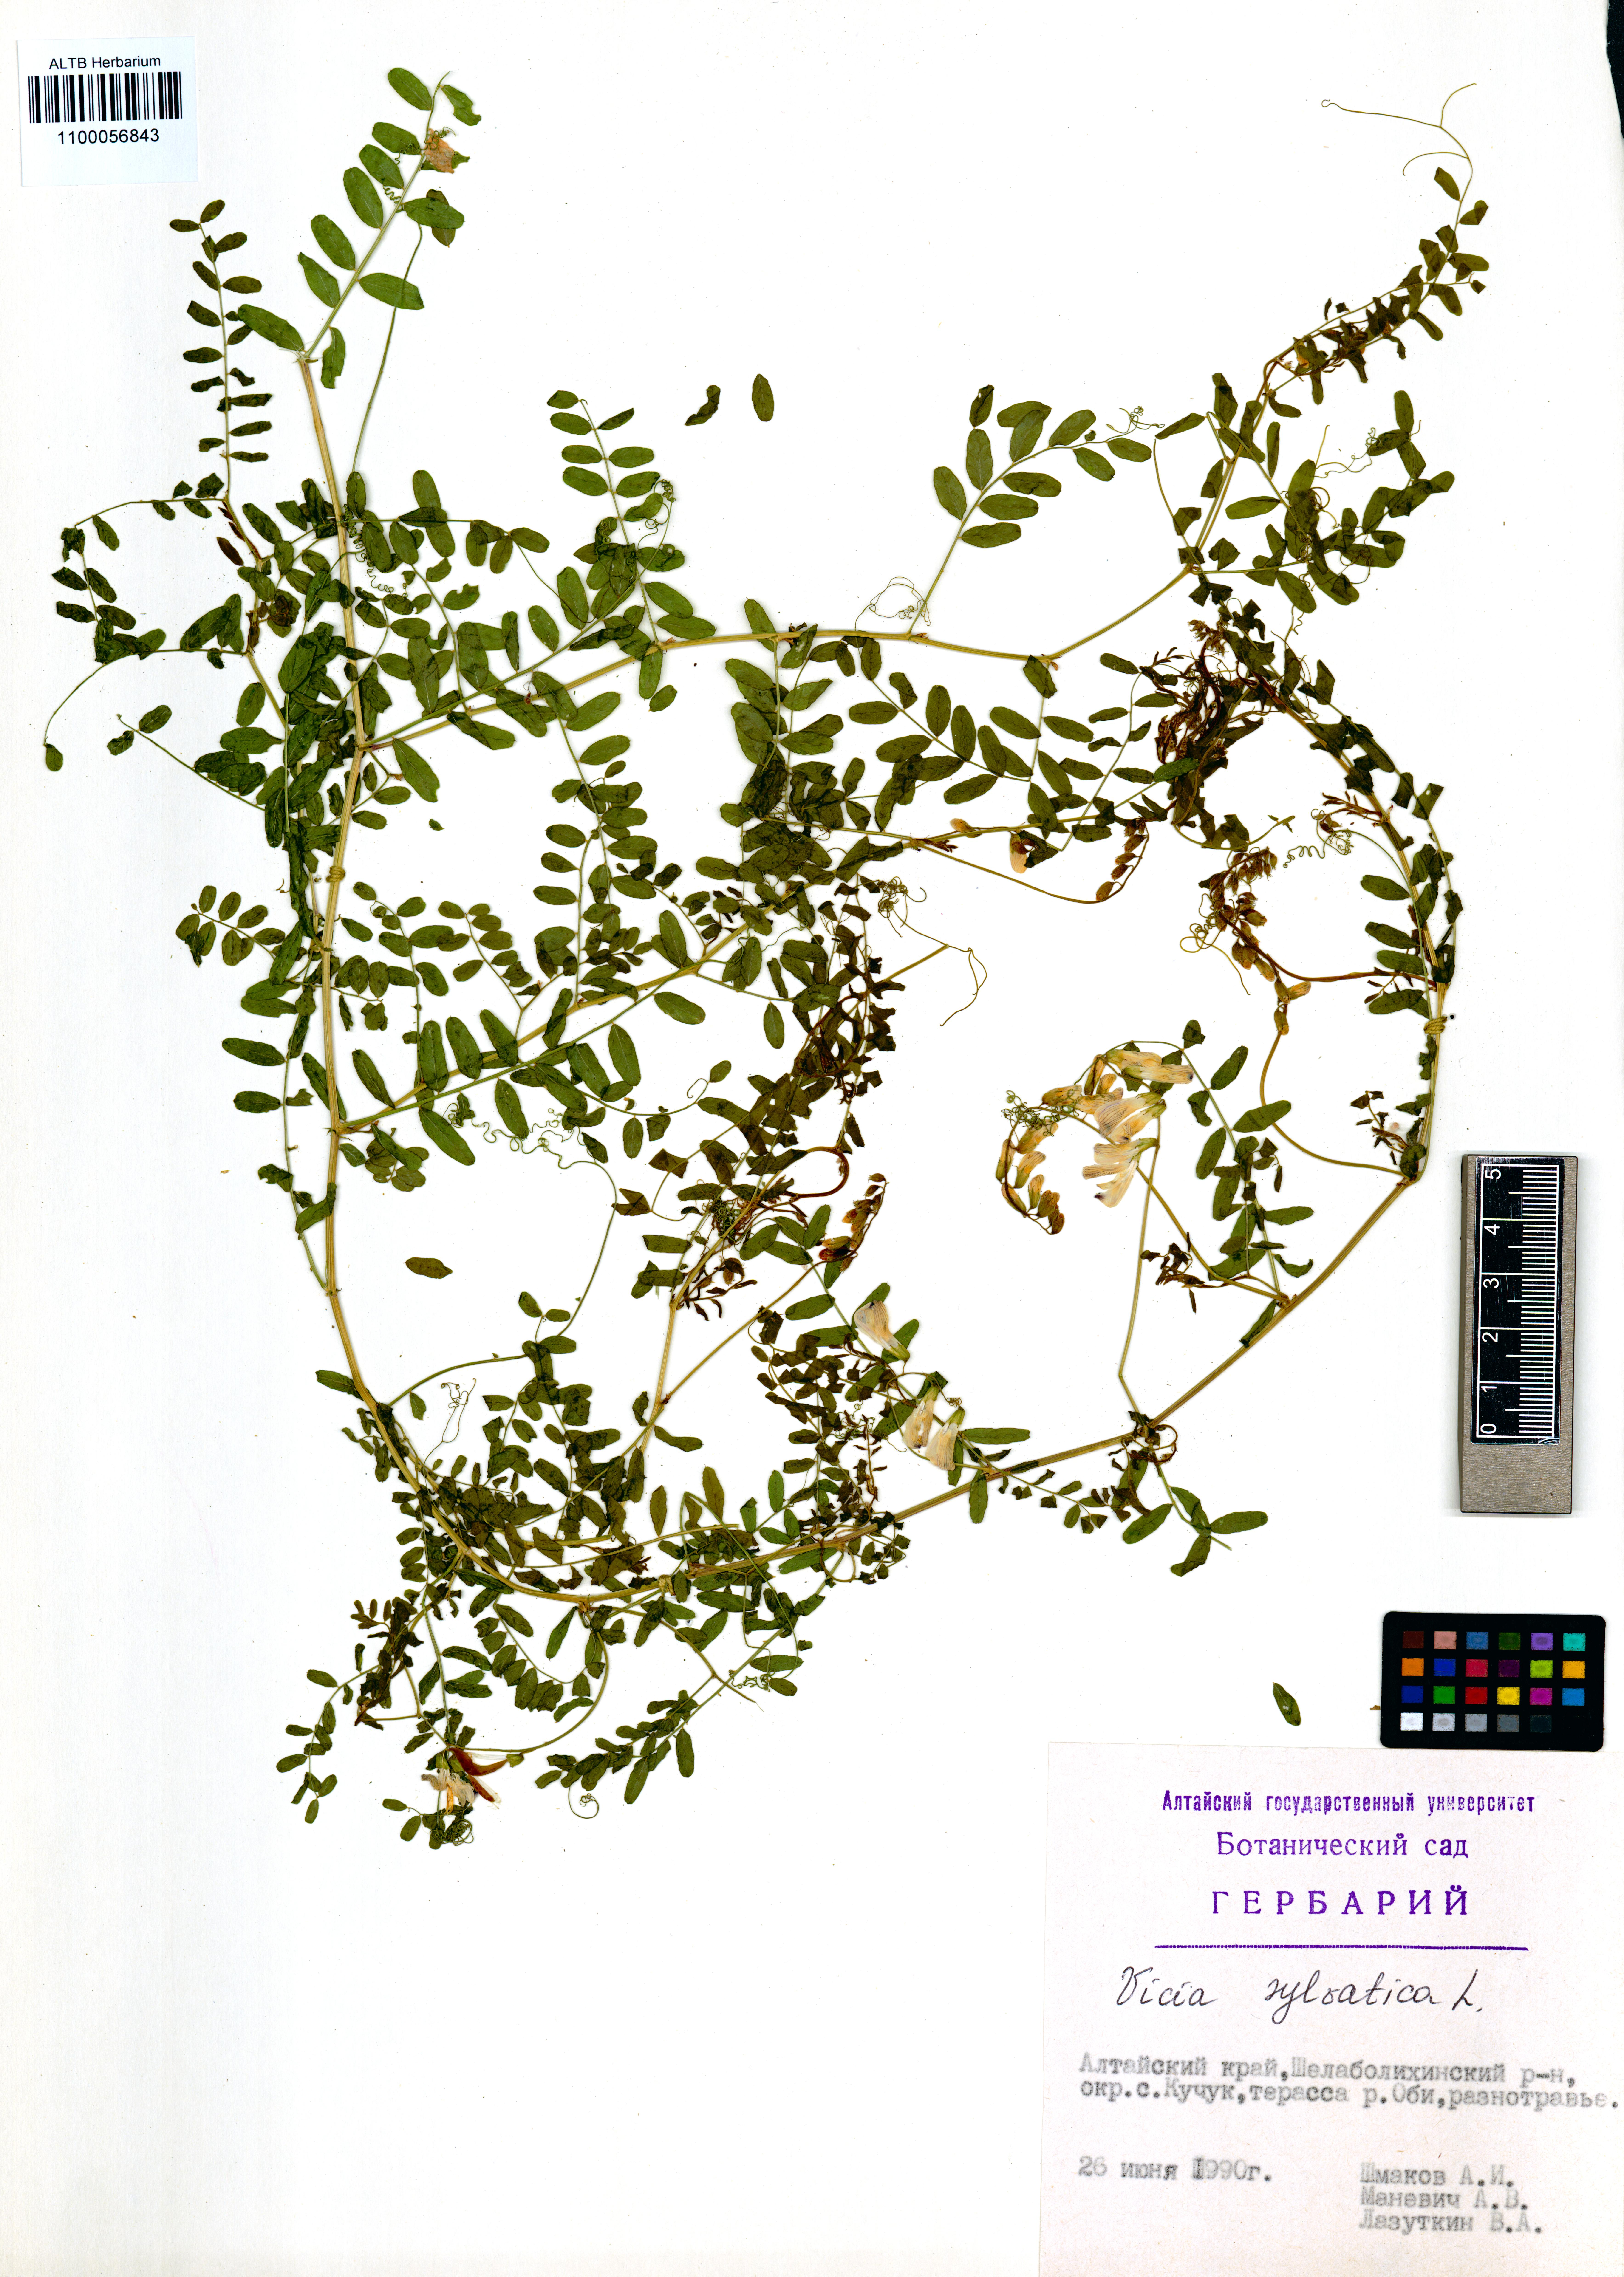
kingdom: Plantae
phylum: Tracheophyta
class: Magnoliopsida
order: Fabales
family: Fabaceae
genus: Vicia
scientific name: Vicia sylvatica
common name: Wood vetch
